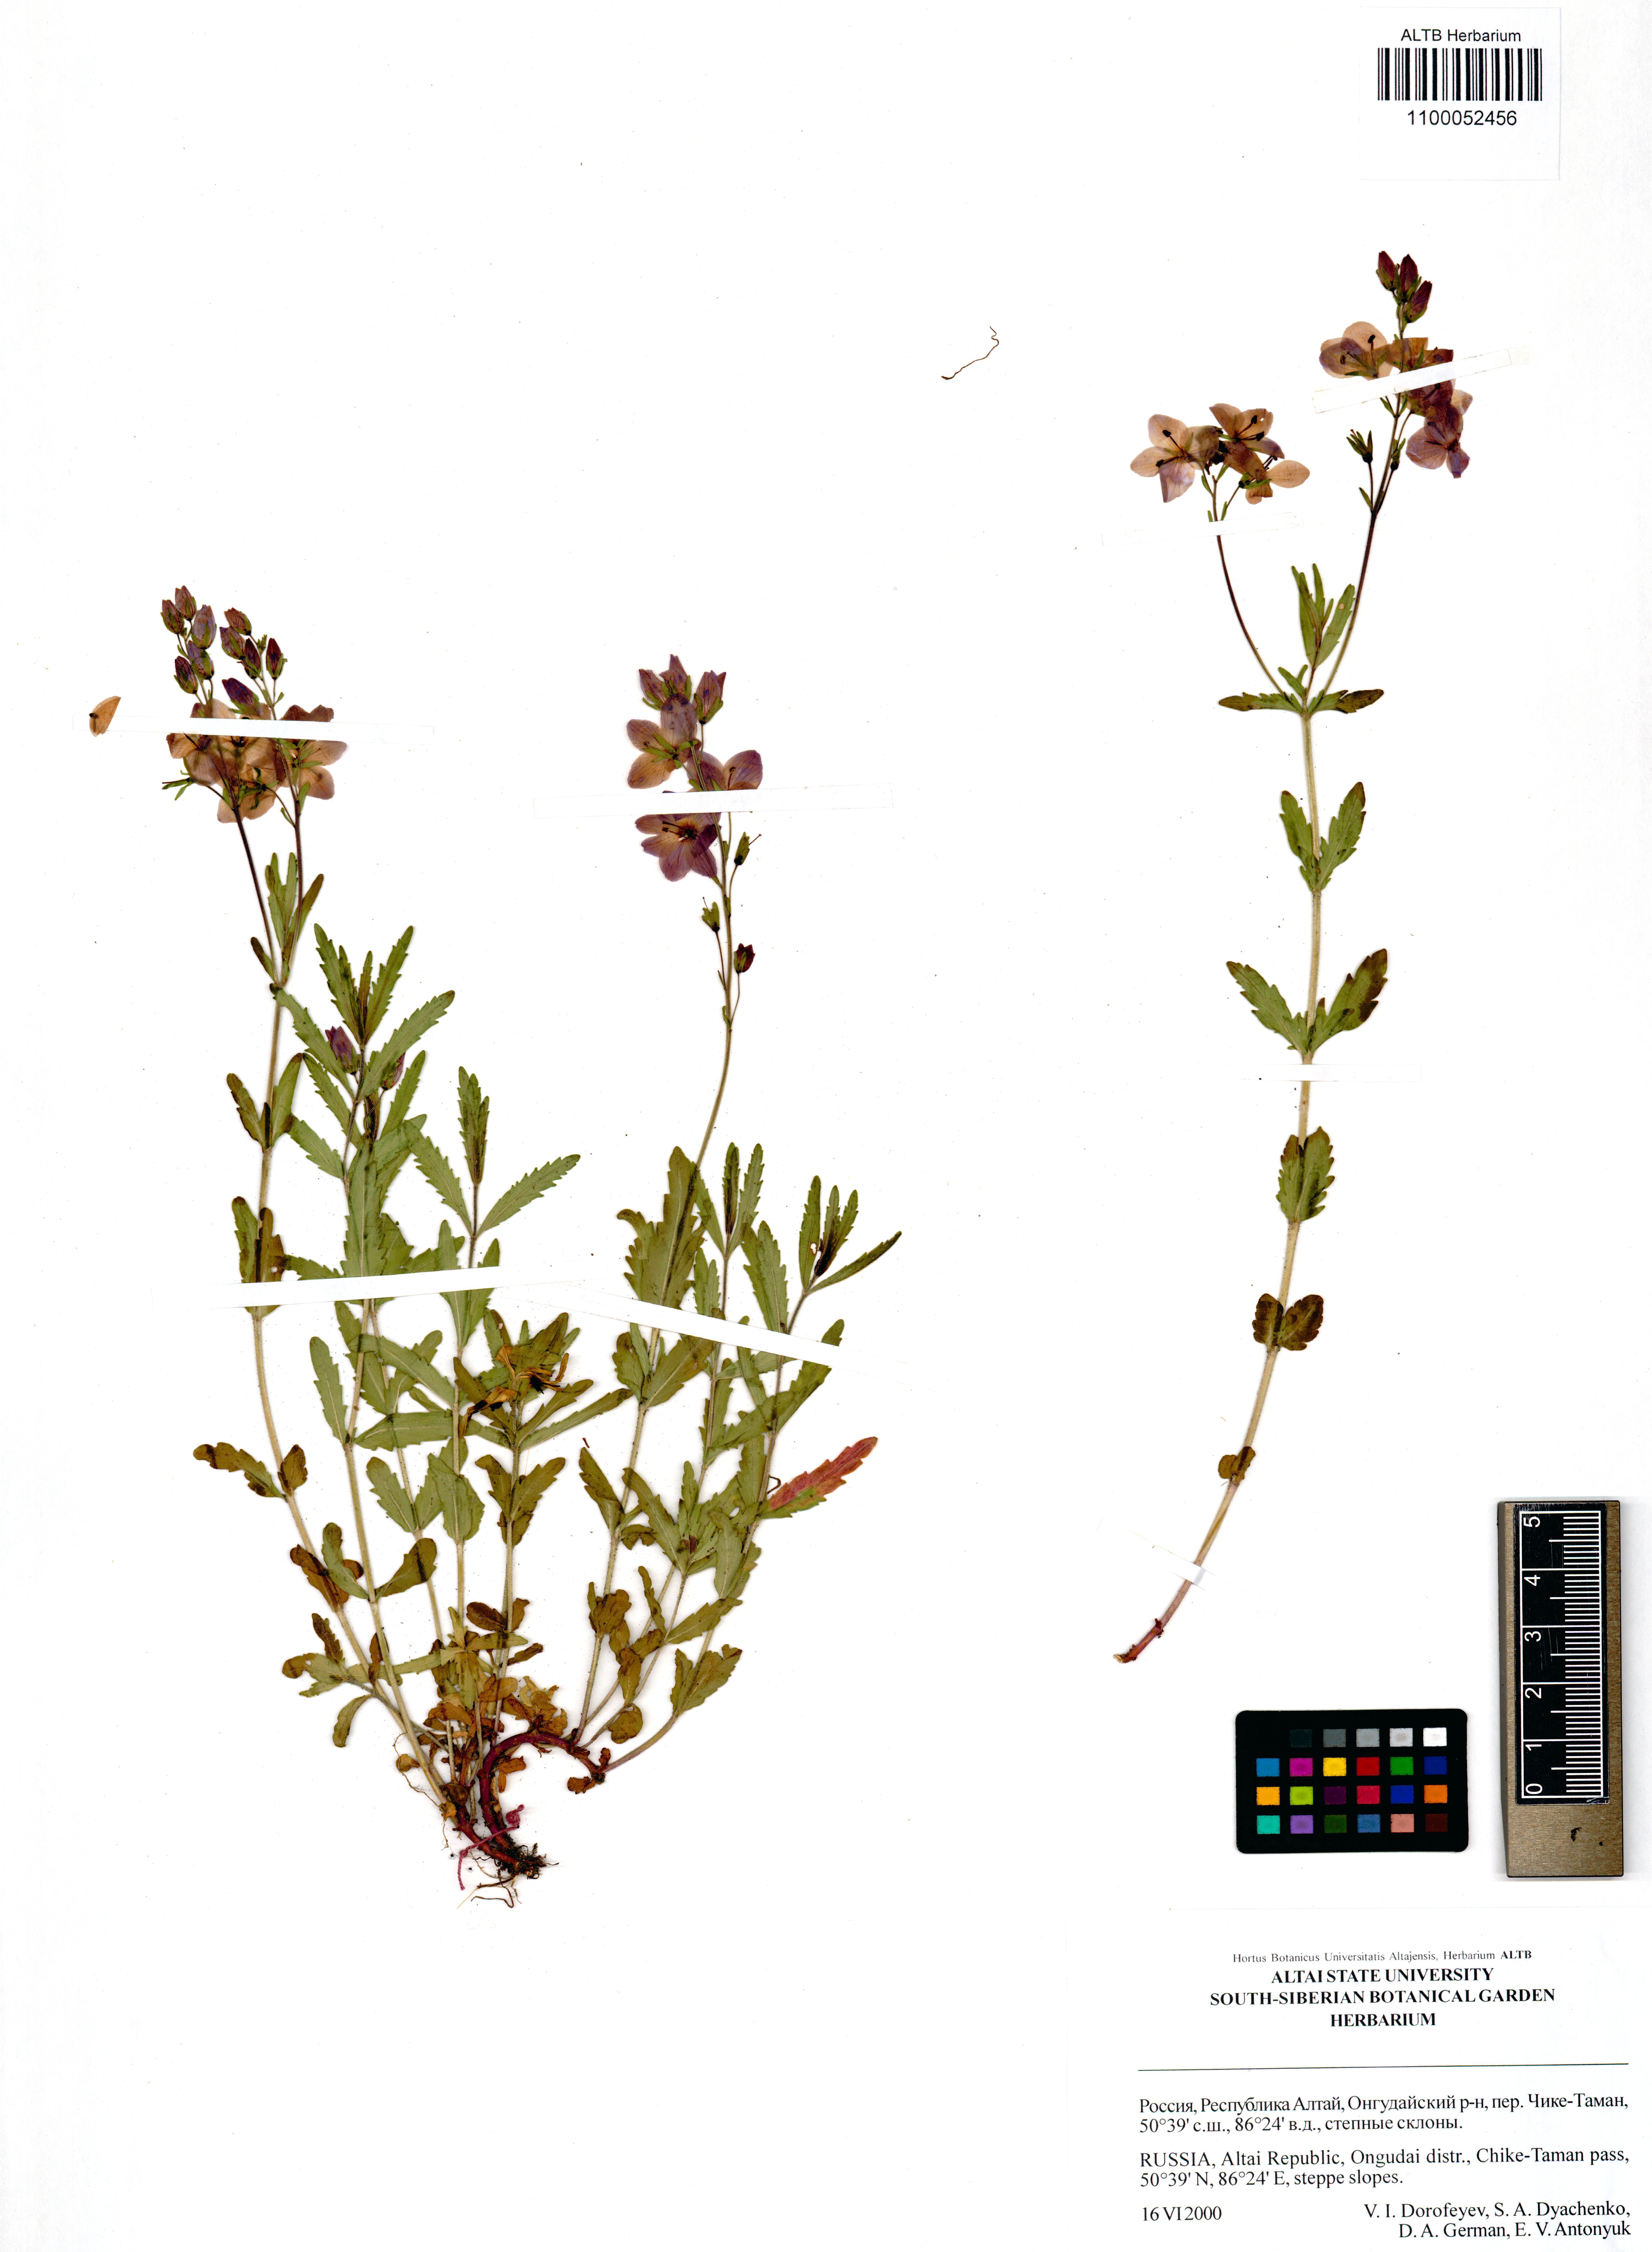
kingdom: Plantae
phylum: Tracheophyta
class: Magnoliopsida
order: Lamiales
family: Plantaginaceae
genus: Veronica
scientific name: Veronica krylovii
